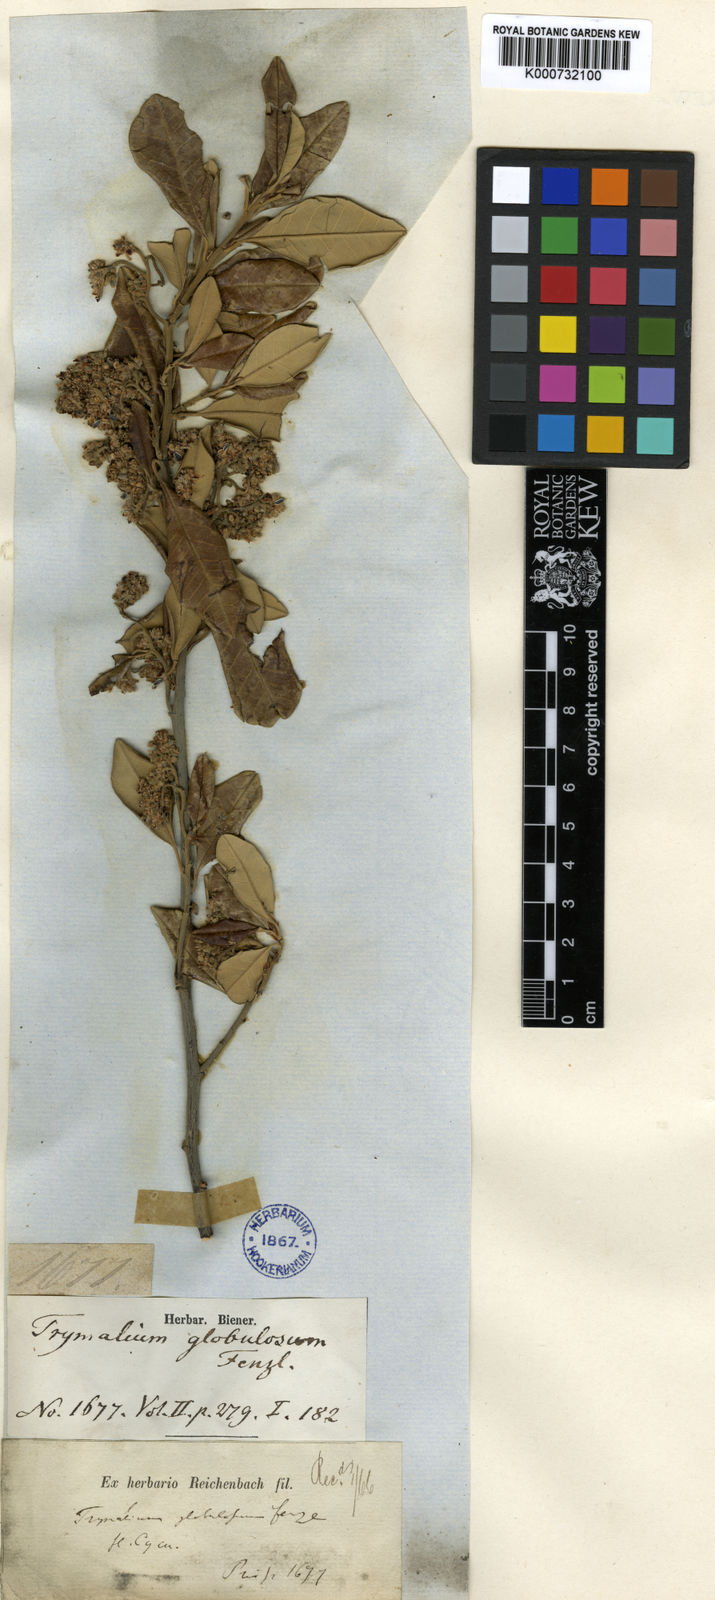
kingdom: Plantae
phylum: Tracheophyta
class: Magnoliopsida
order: Rosales
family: Rhamnaceae
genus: Spyridium
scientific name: Spyridium globulosum
